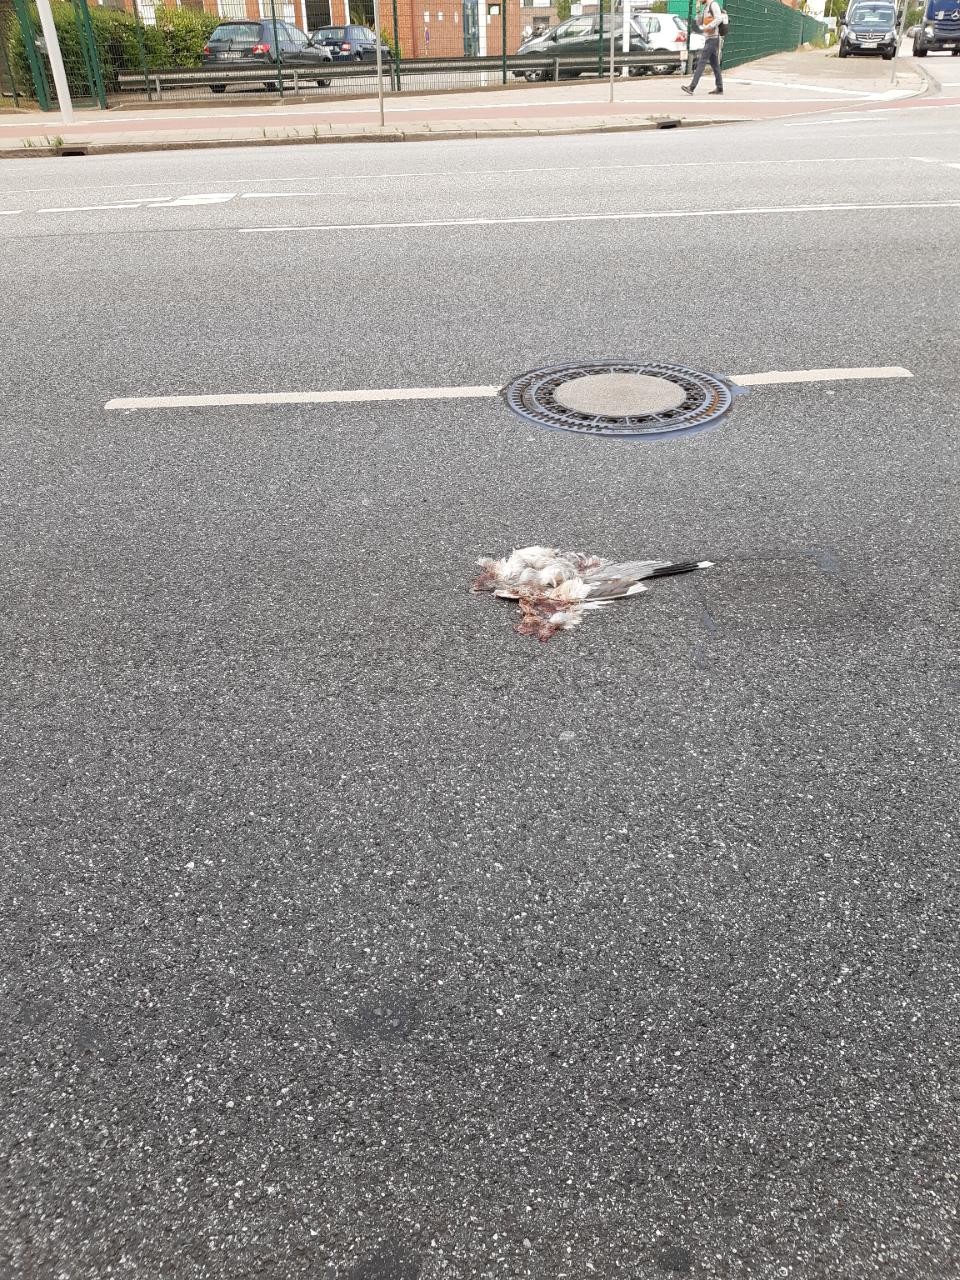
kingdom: Animalia
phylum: Chordata
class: Aves
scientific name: Aves
